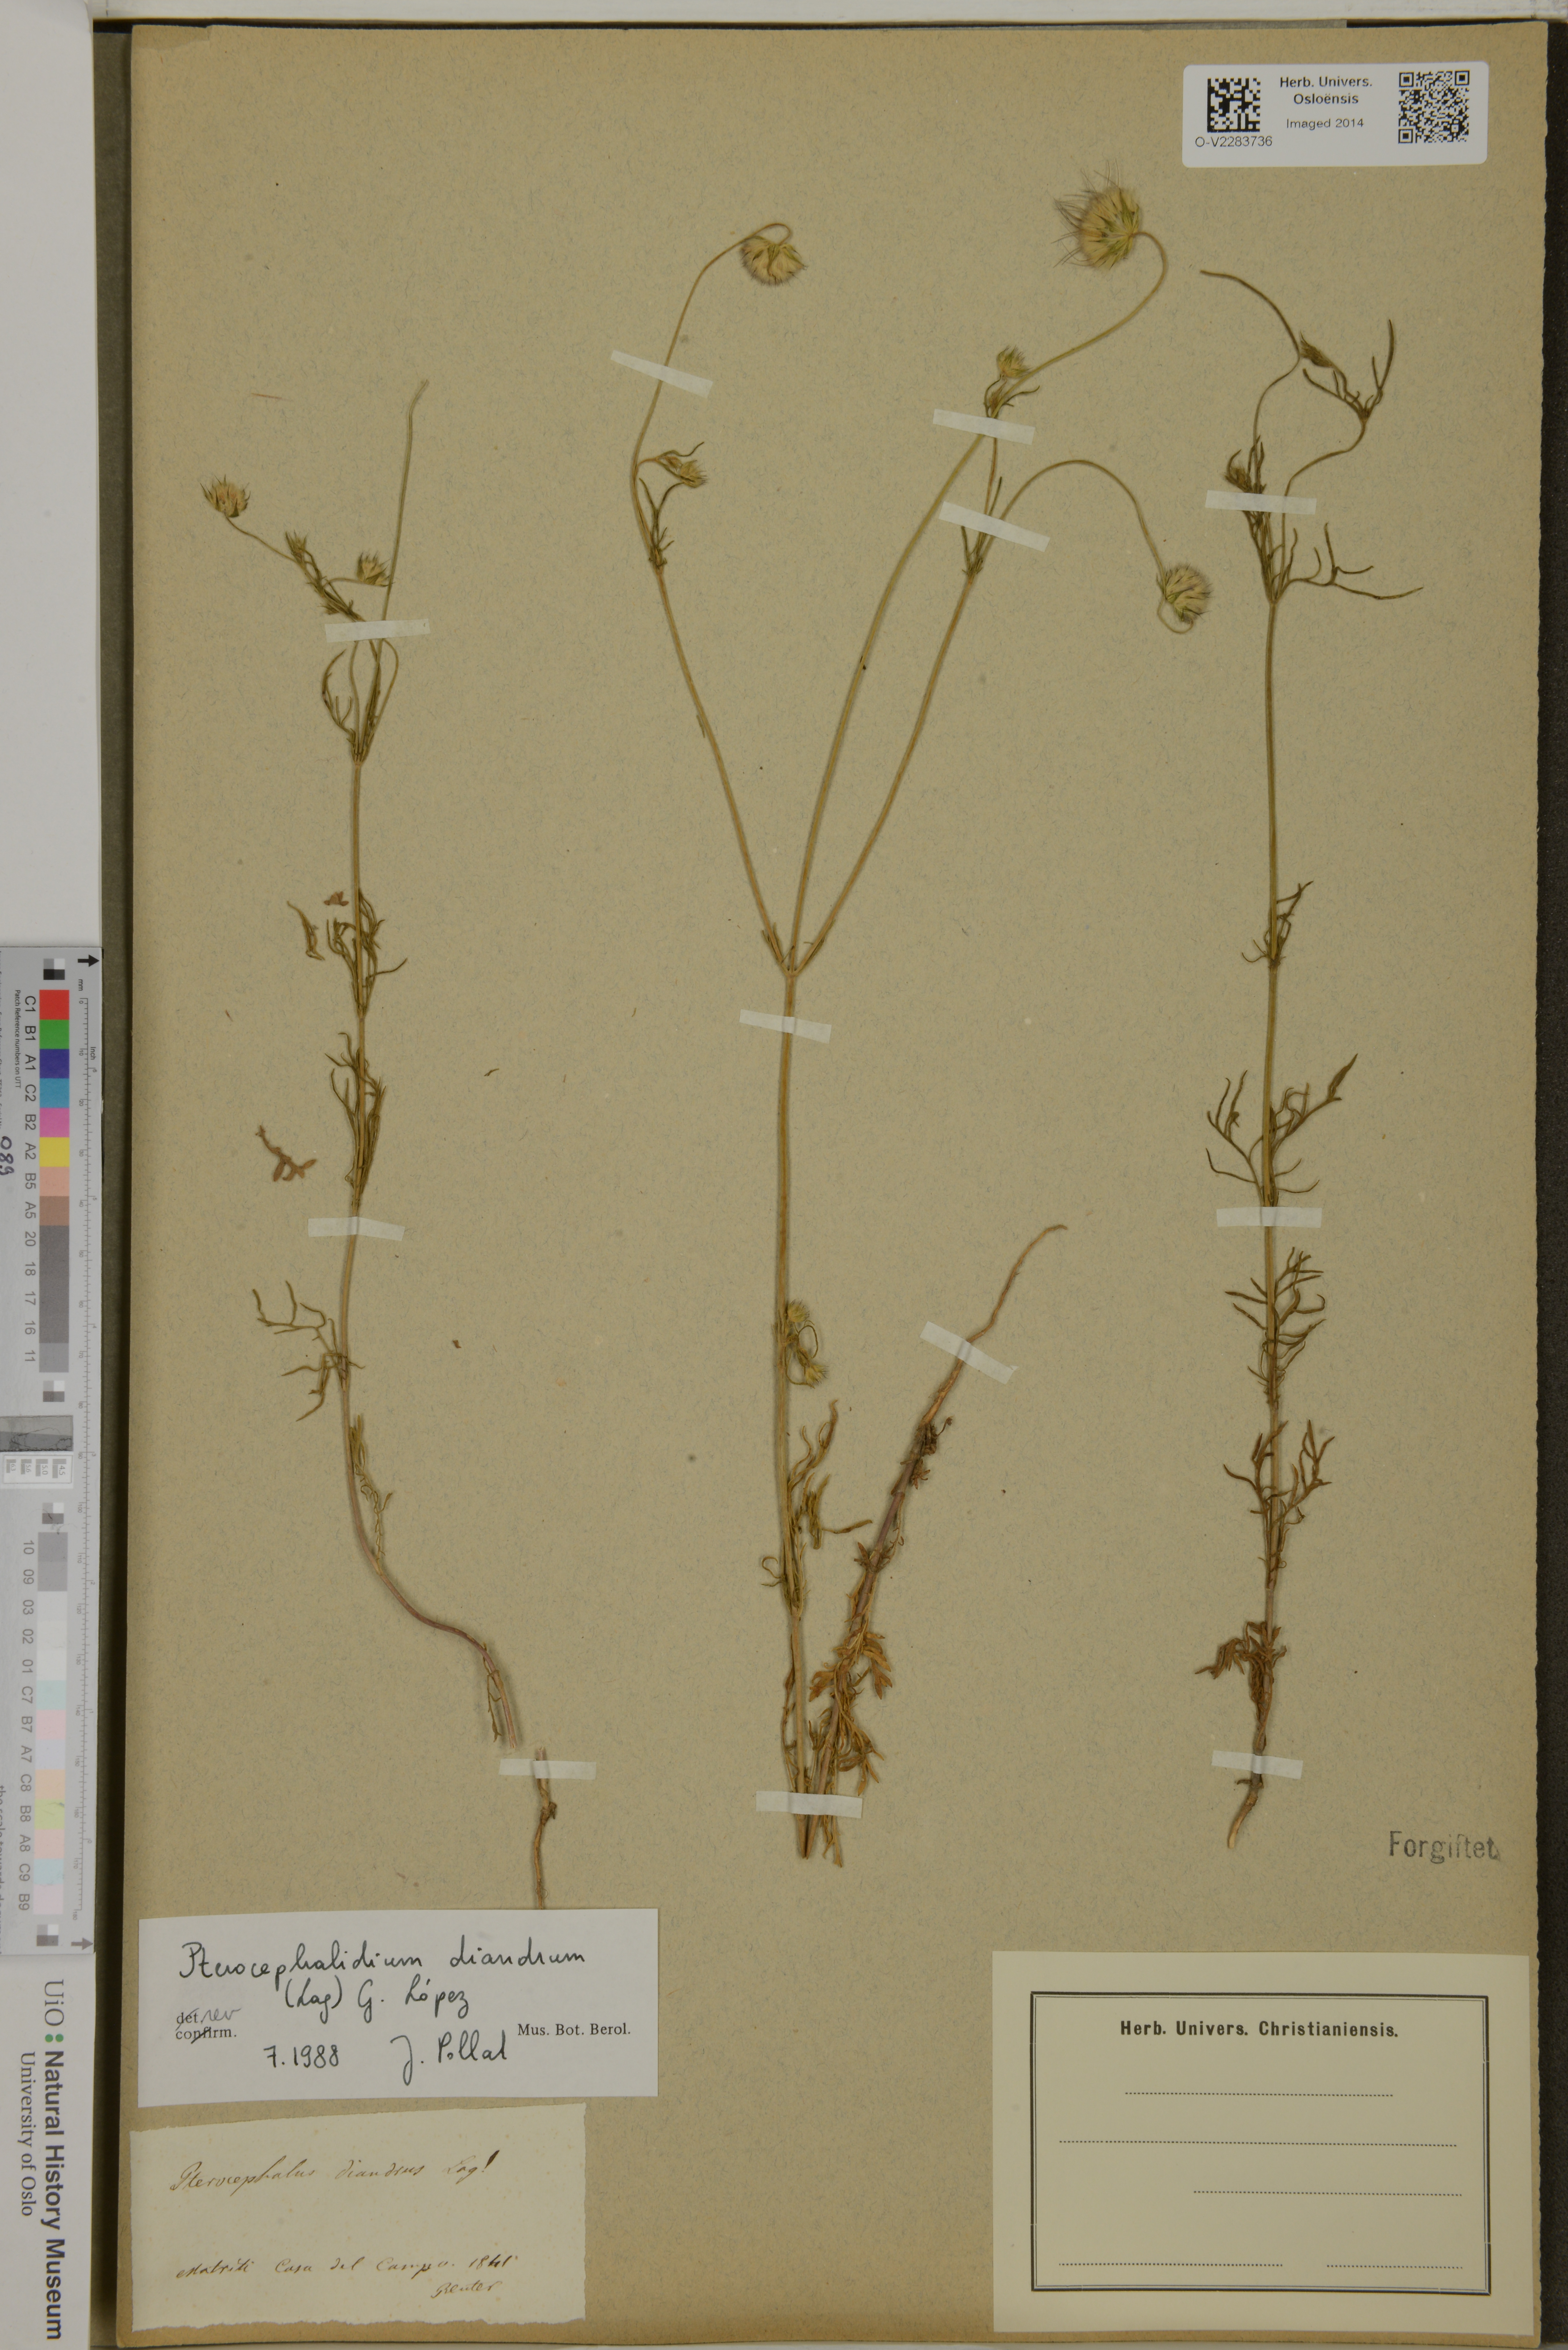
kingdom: Plantae
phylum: Tracheophyta
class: Magnoliopsida
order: Dipsacales
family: Caprifoliaceae
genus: Pterocephalidium
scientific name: Pterocephalidium diandrum
